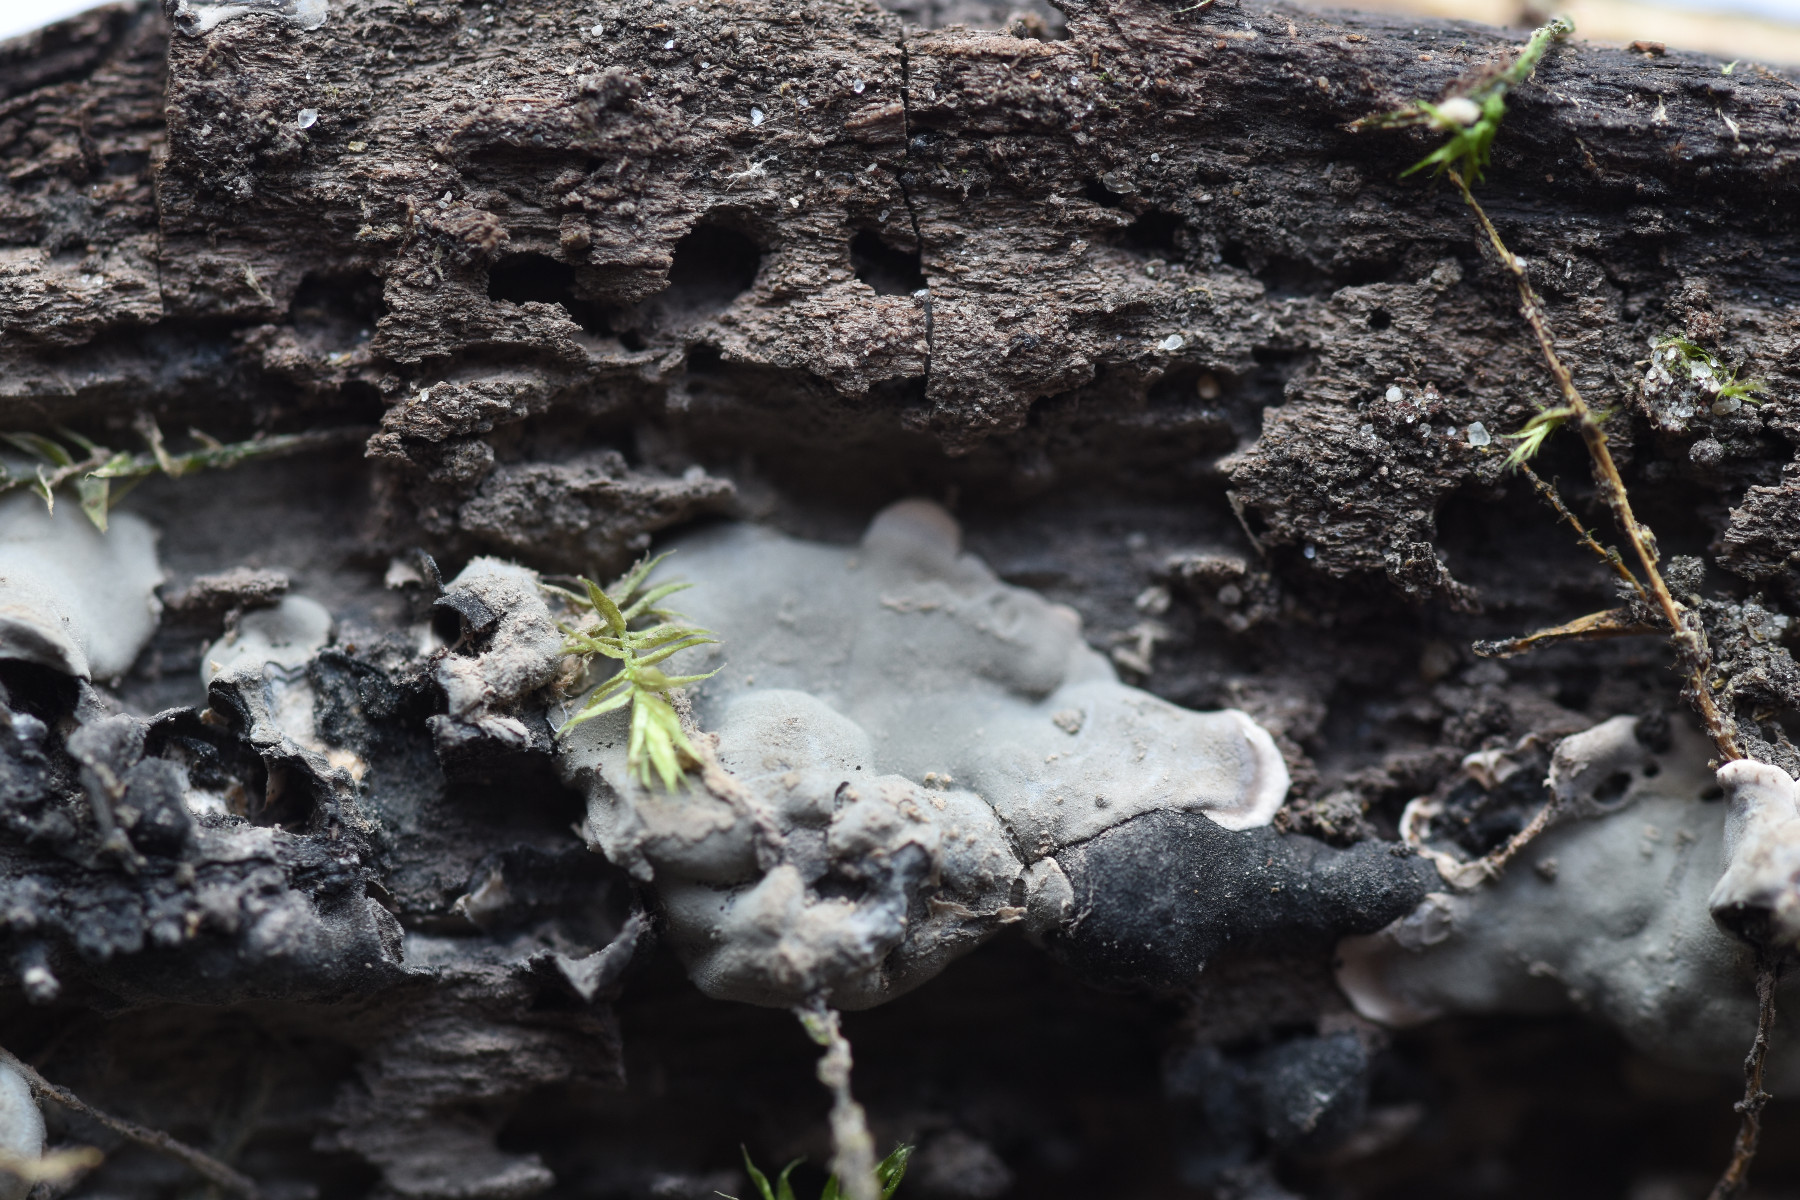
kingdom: Fungi
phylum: Ascomycota
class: Sordariomycetes
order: Xylariales
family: Xylariaceae
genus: Kretzschmaria
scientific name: Kretzschmaria deusta
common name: stor kulsvamp
